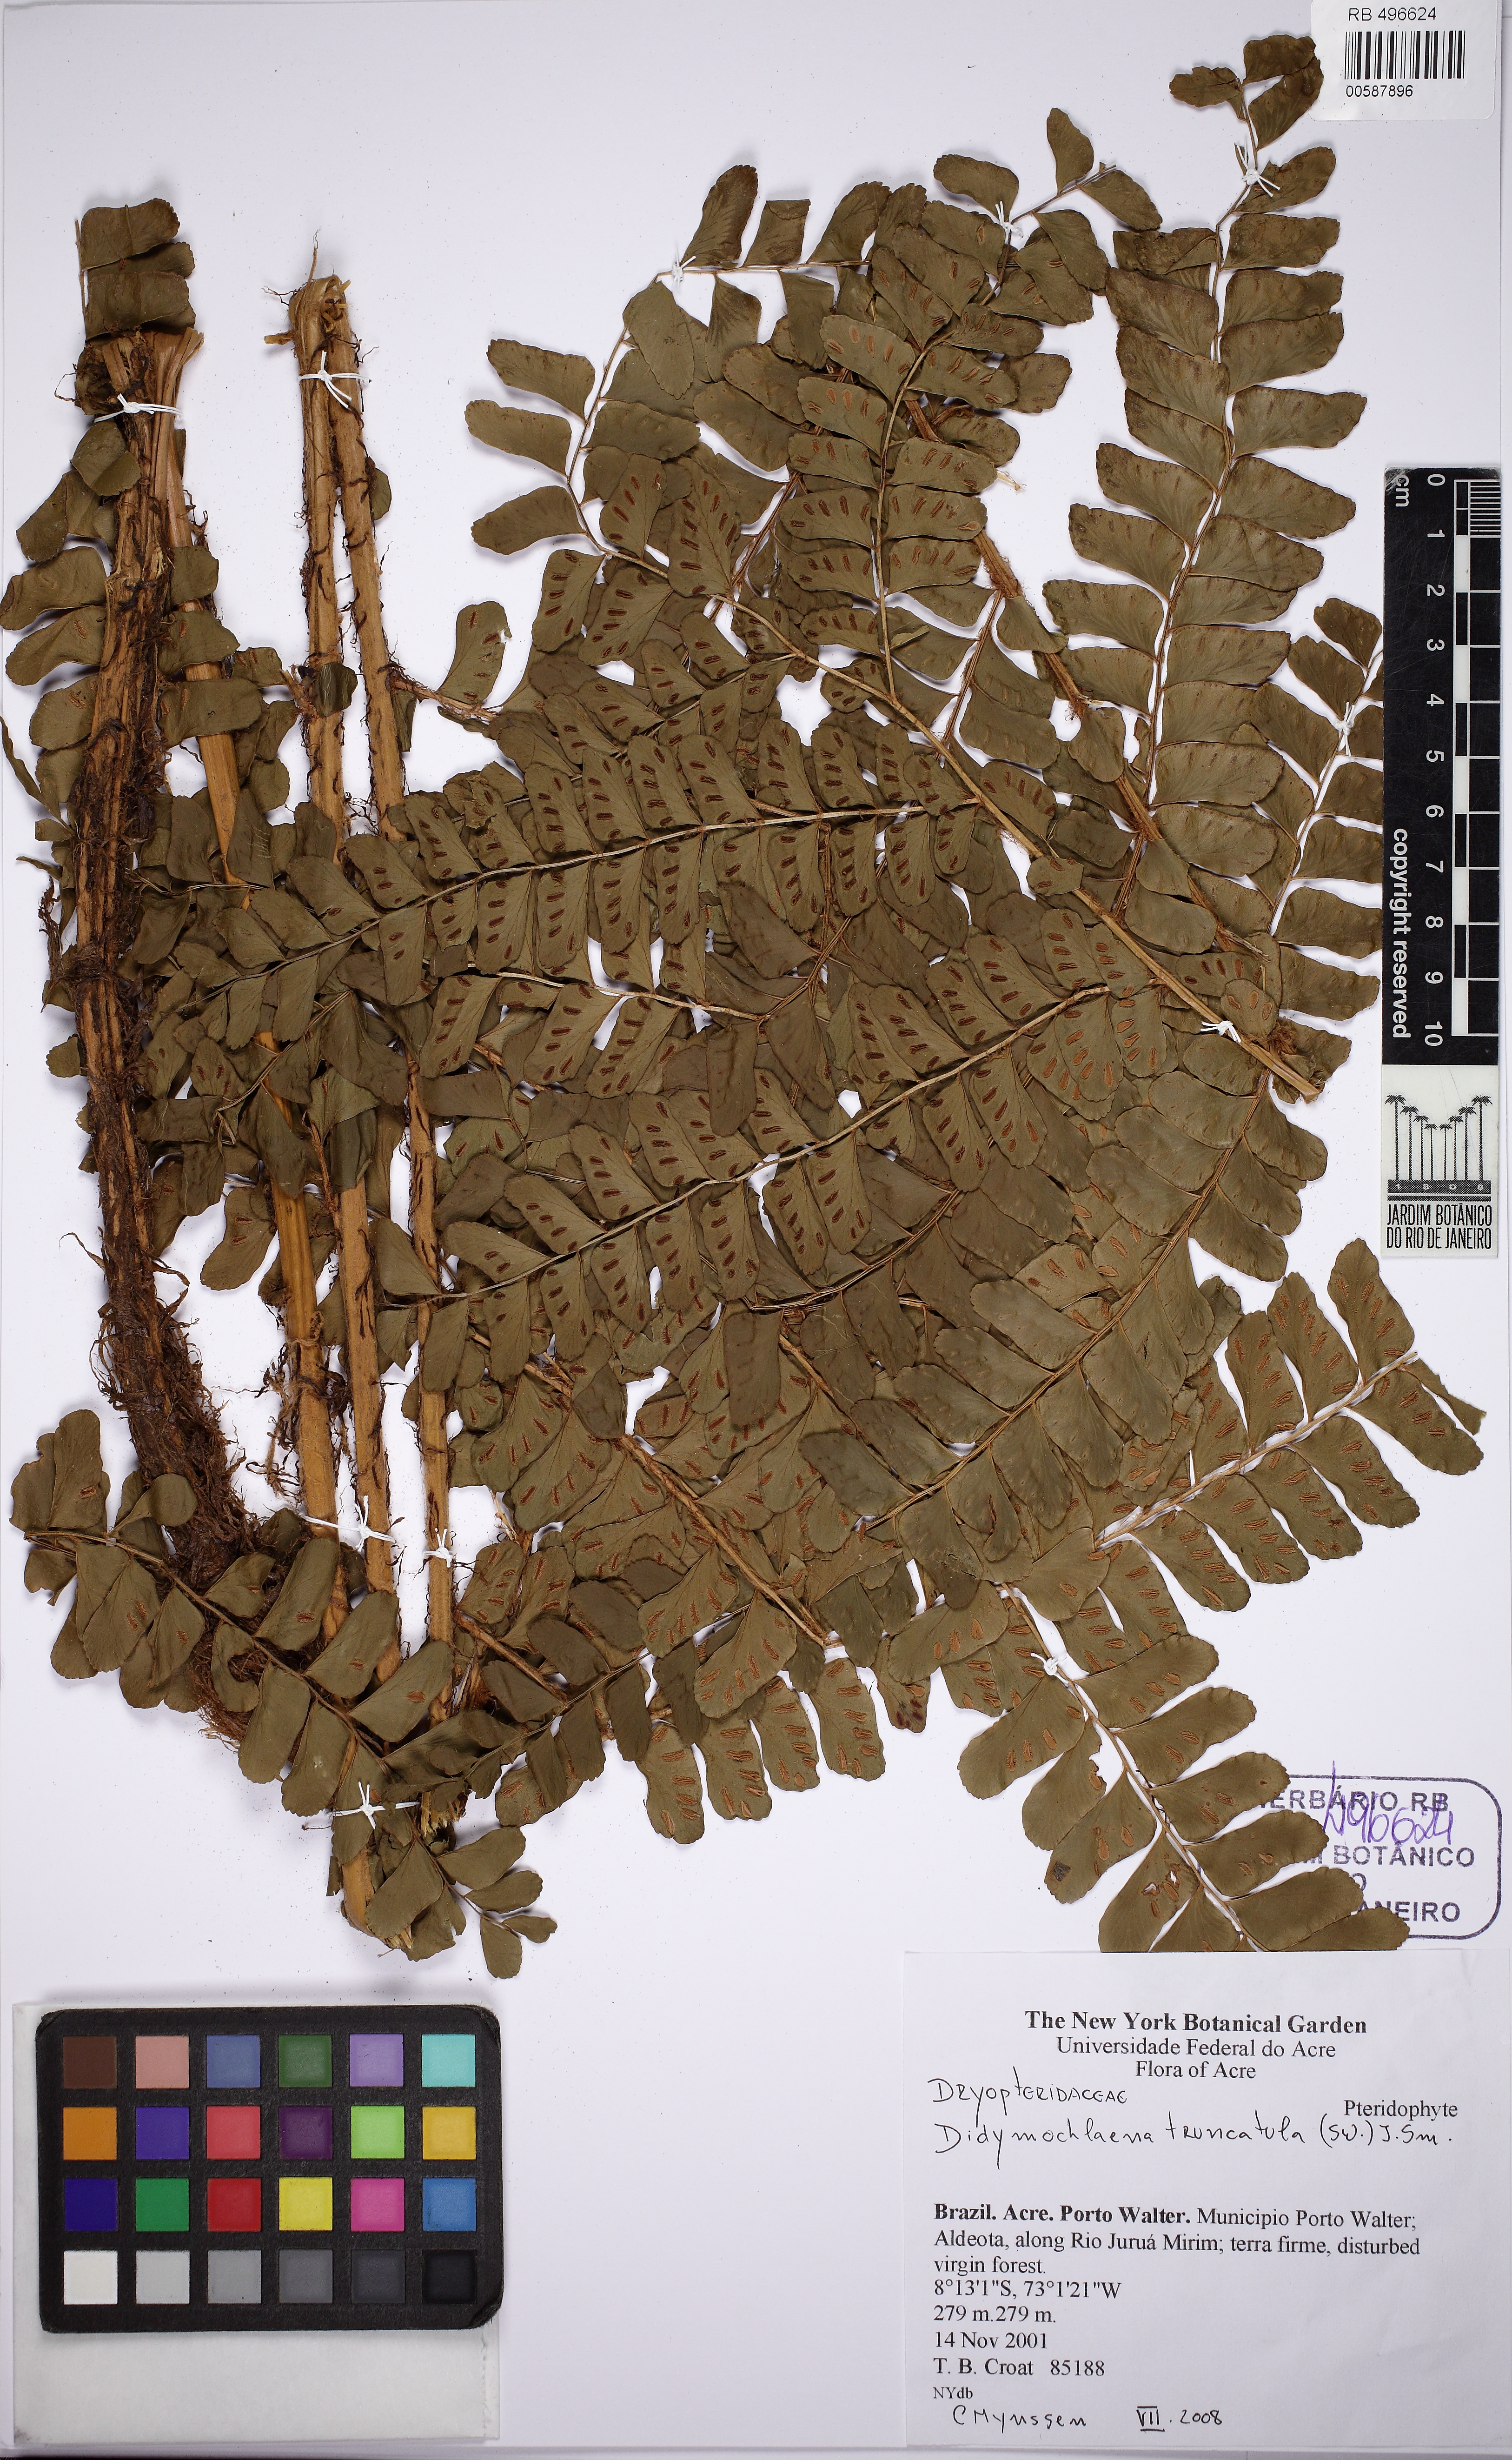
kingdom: Plantae
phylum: Tracheophyta
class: Polypodiopsida
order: Polypodiales
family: Didymochlaenaceae
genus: Didymochlaena
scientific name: Didymochlaena truncatula
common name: Mahogany fern
